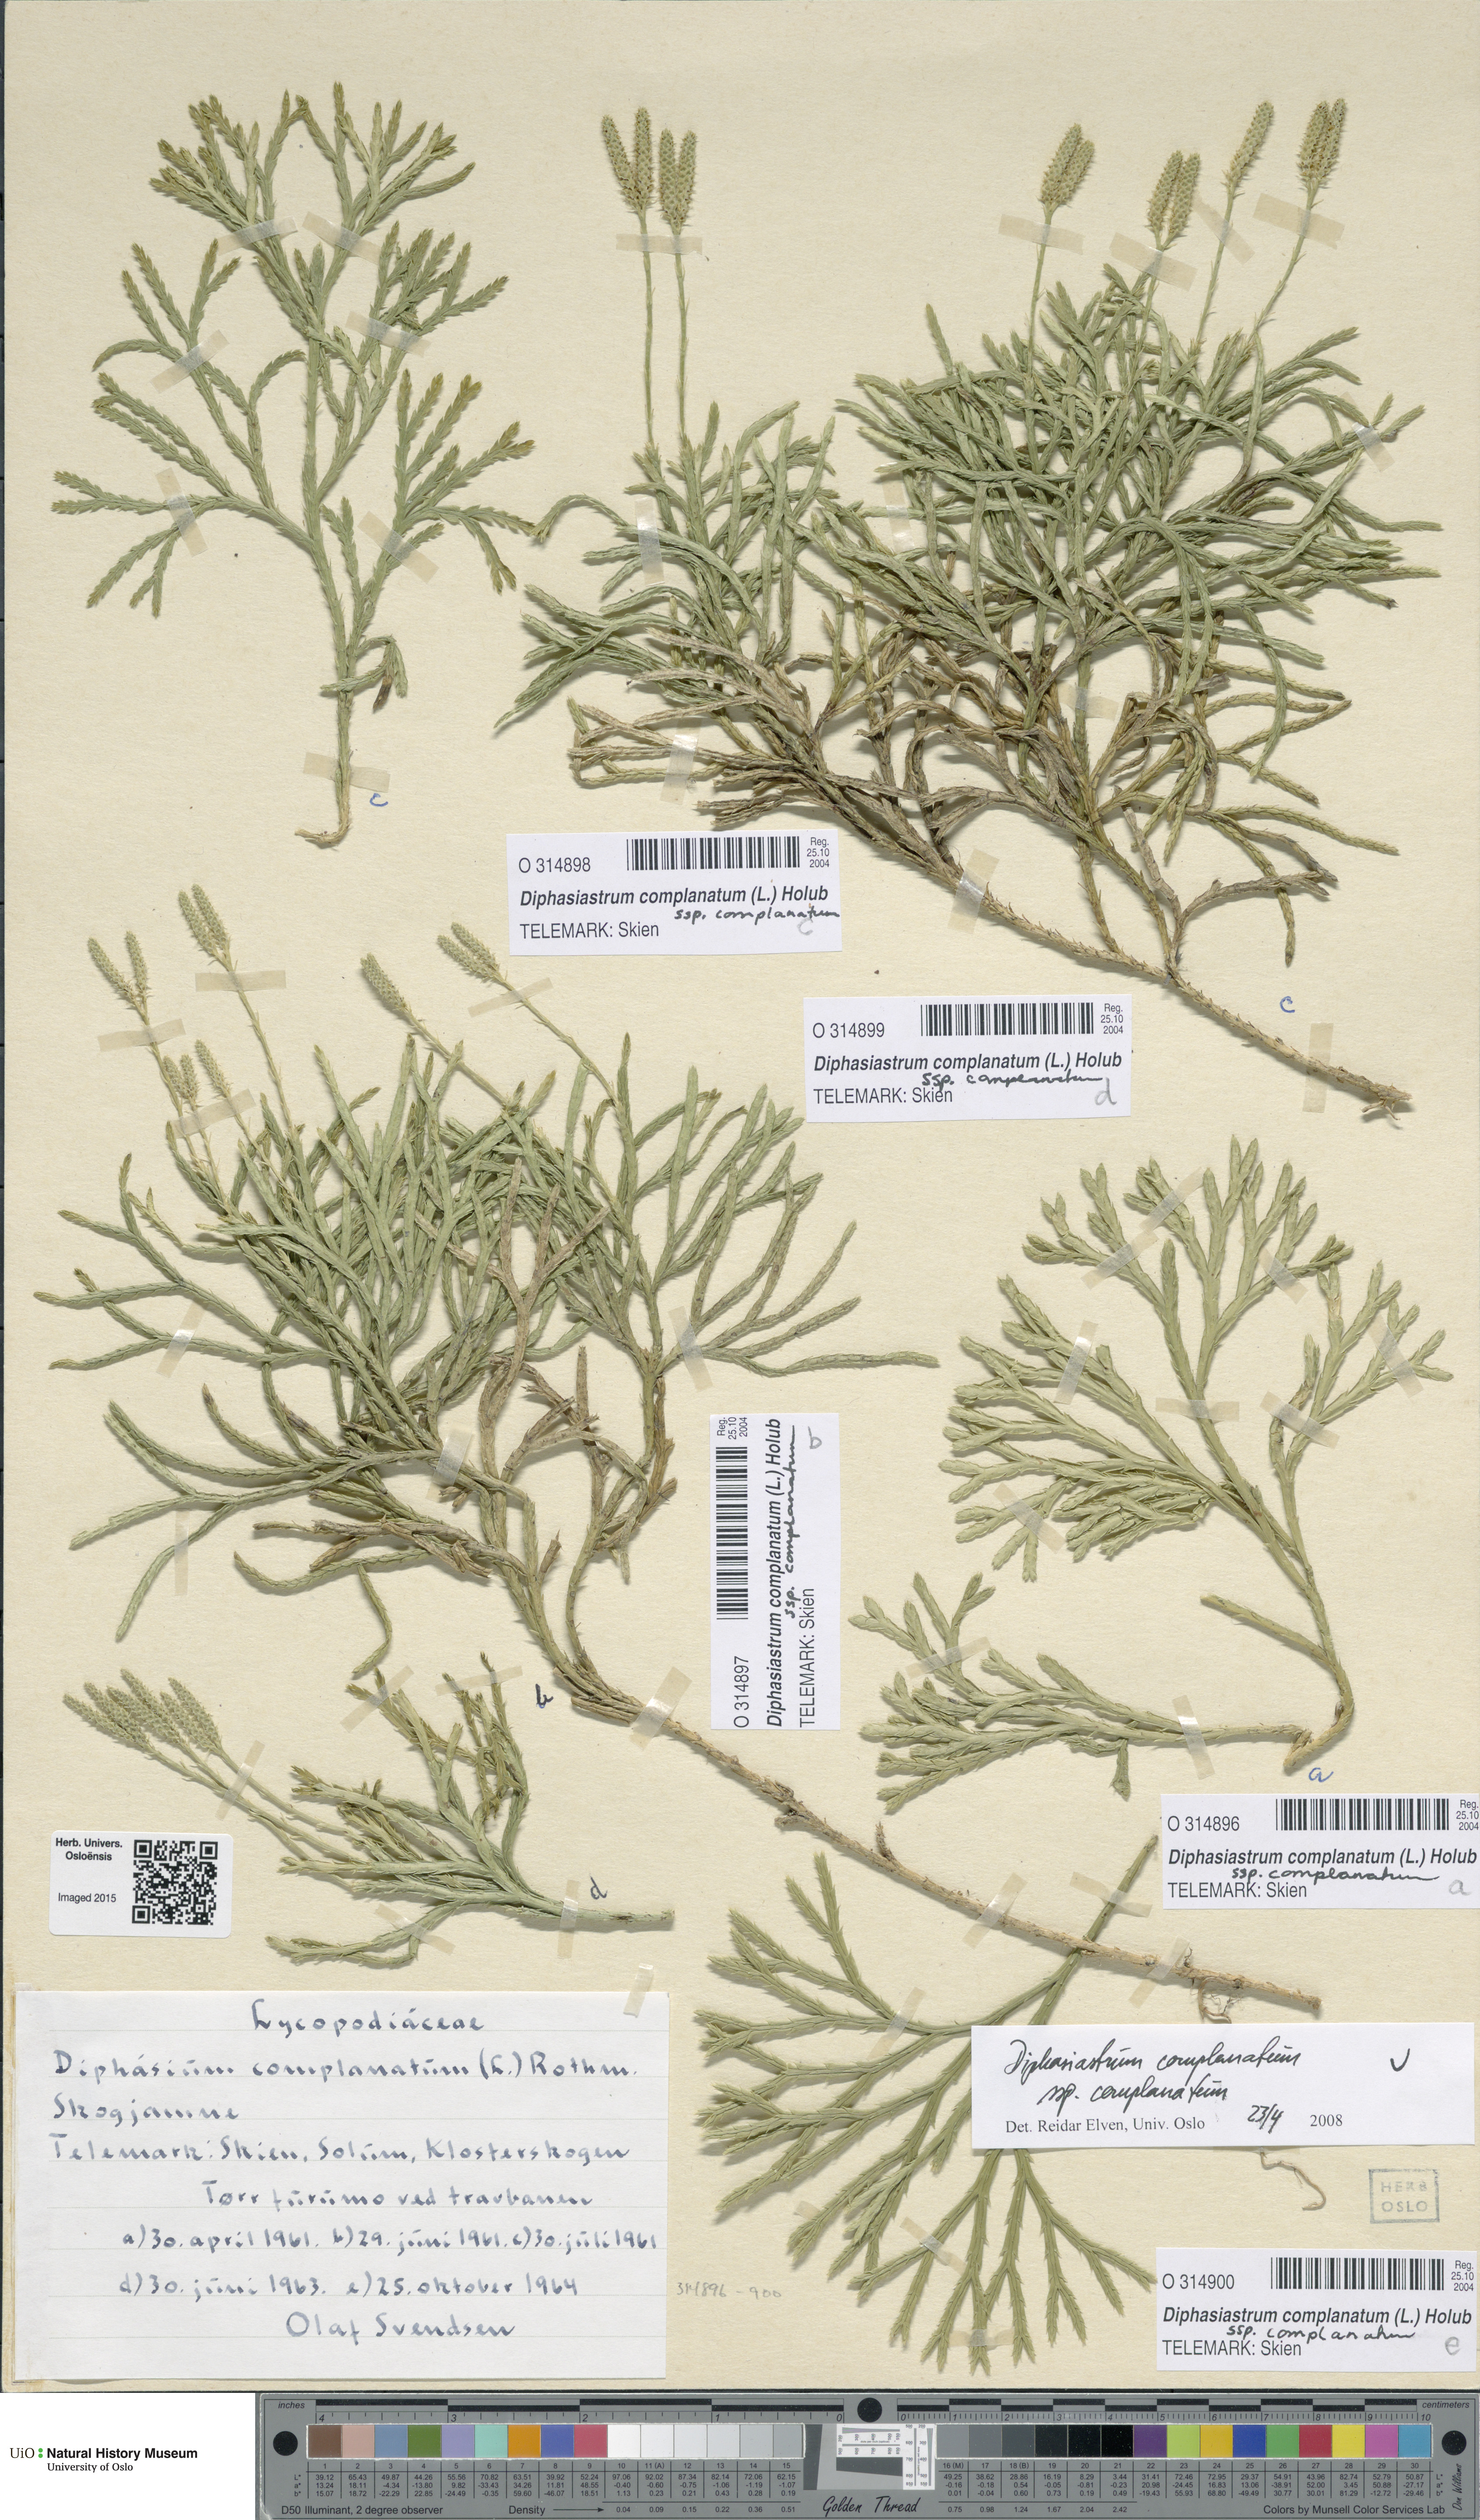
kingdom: Plantae
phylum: Tracheophyta
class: Lycopodiopsida
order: Lycopodiales
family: Lycopodiaceae
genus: Diphasiastrum
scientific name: Diphasiastrum complanatum
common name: Northern running-pine
